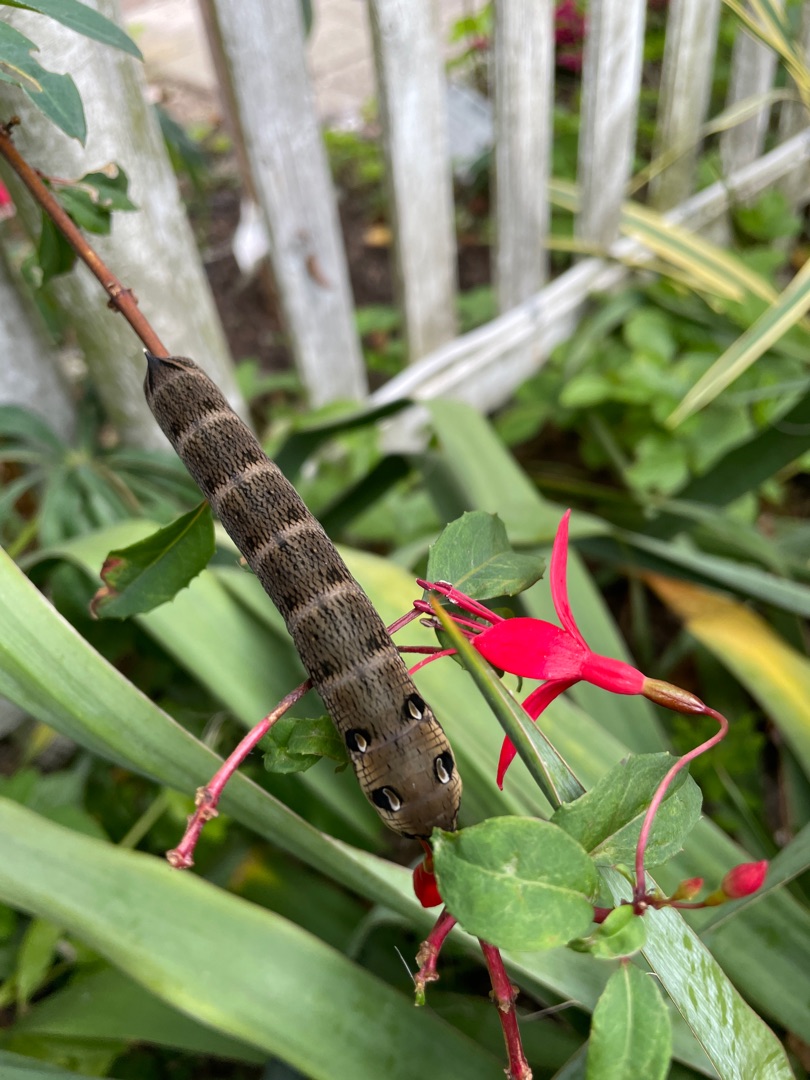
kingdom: Animalia
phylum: Arthropoda
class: Insecta
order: Lepidoptera
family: Sphingidae
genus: Deilephila
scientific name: Deilephila elpenor
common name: Dueurtsværmer
